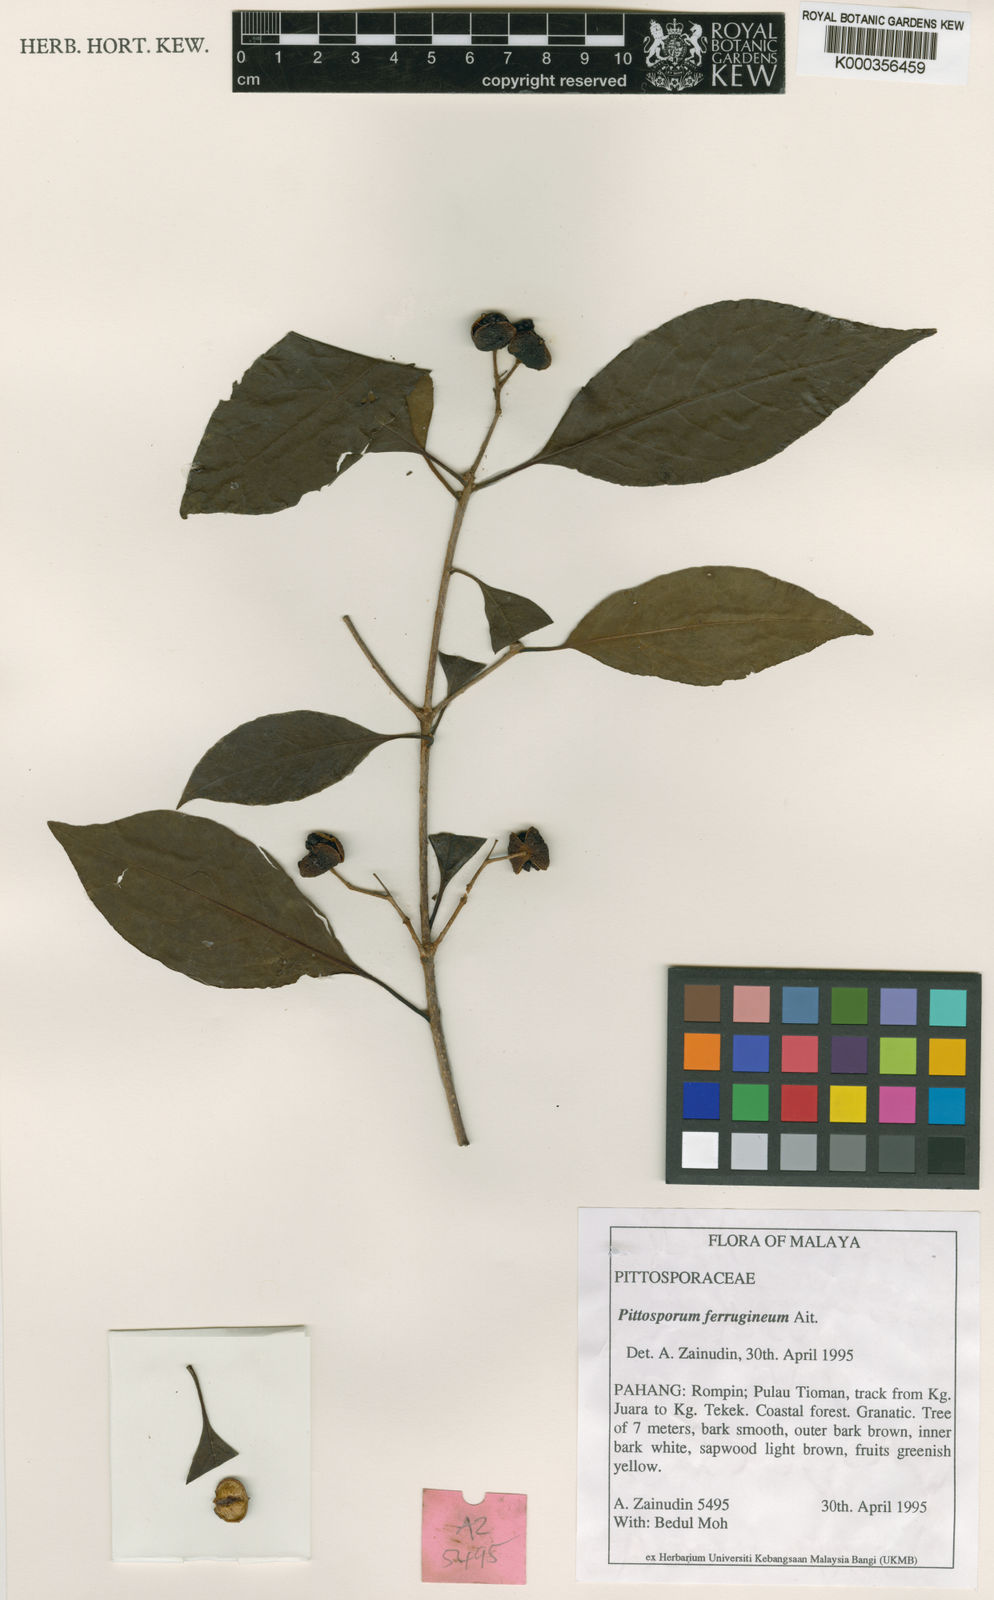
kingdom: Plantae
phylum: Tracheophyta
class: Magnoliopsida
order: Apiales
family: Pittosporaceae
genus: Pittosporum
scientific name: Pittosporum ferrugineum
